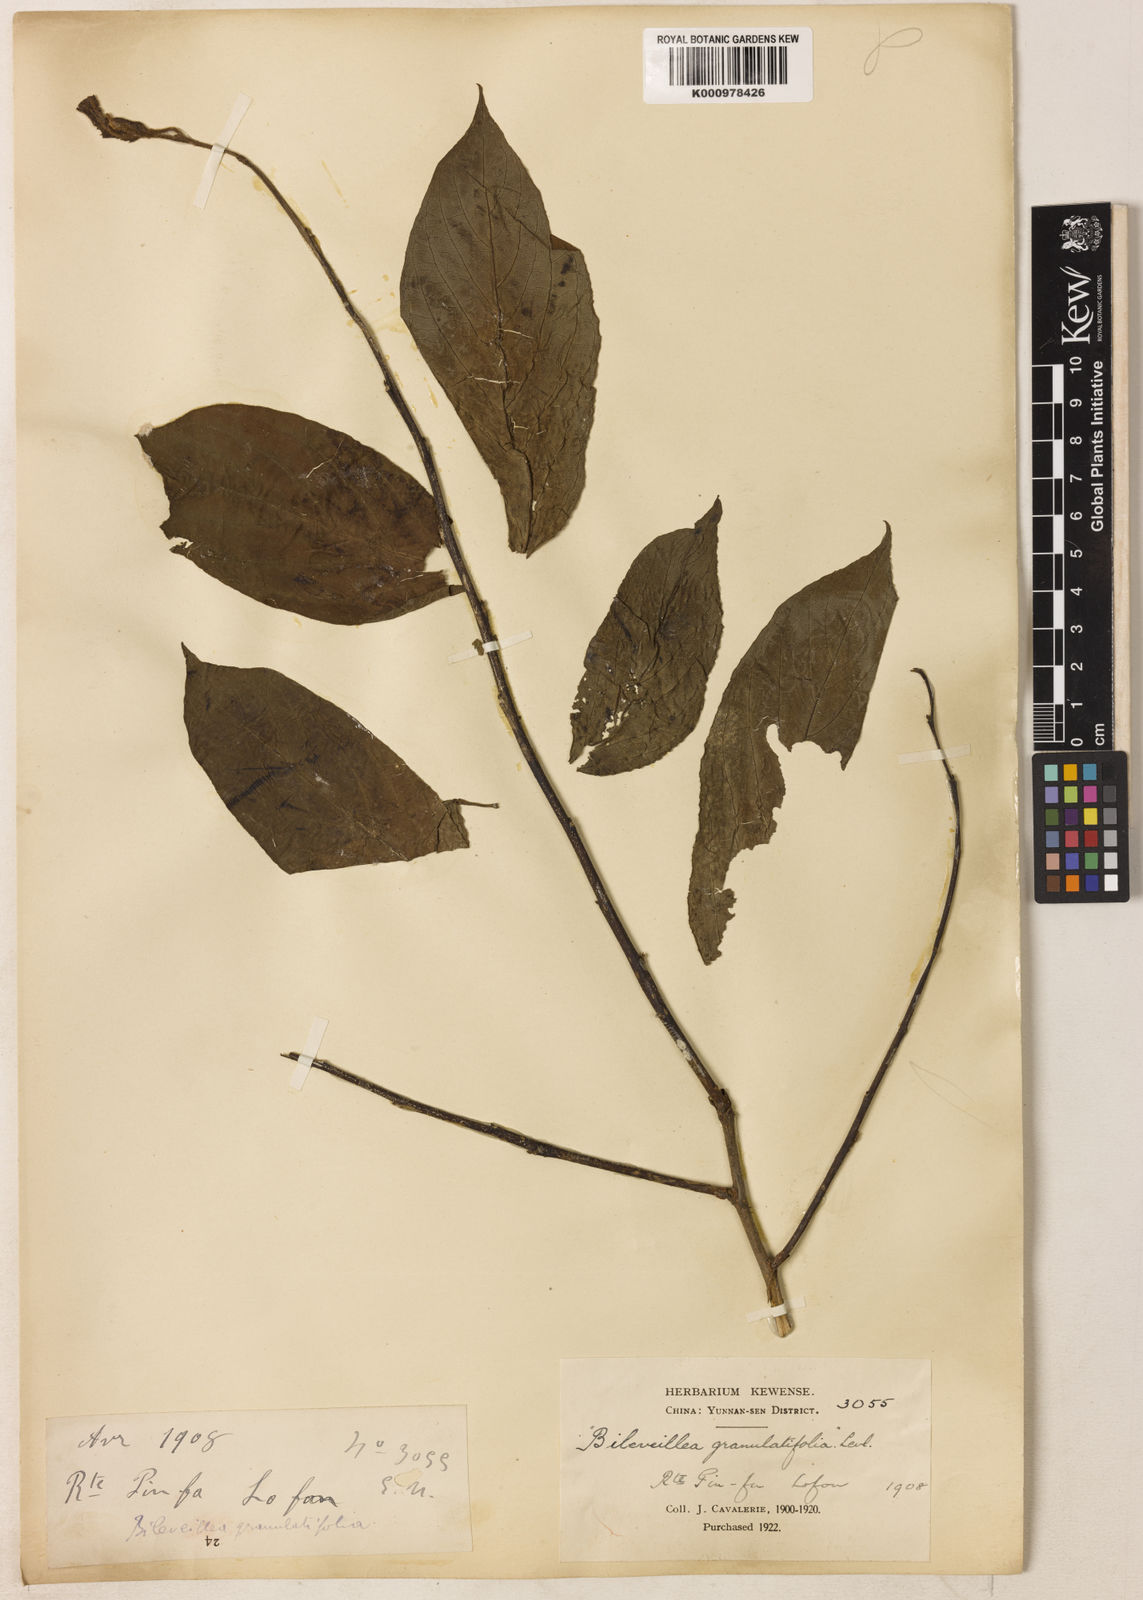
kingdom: Plantae
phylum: Tracheophyta
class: Magnoliopsida
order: Asterales
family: Asteraceae
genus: Blumea
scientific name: Blumea
